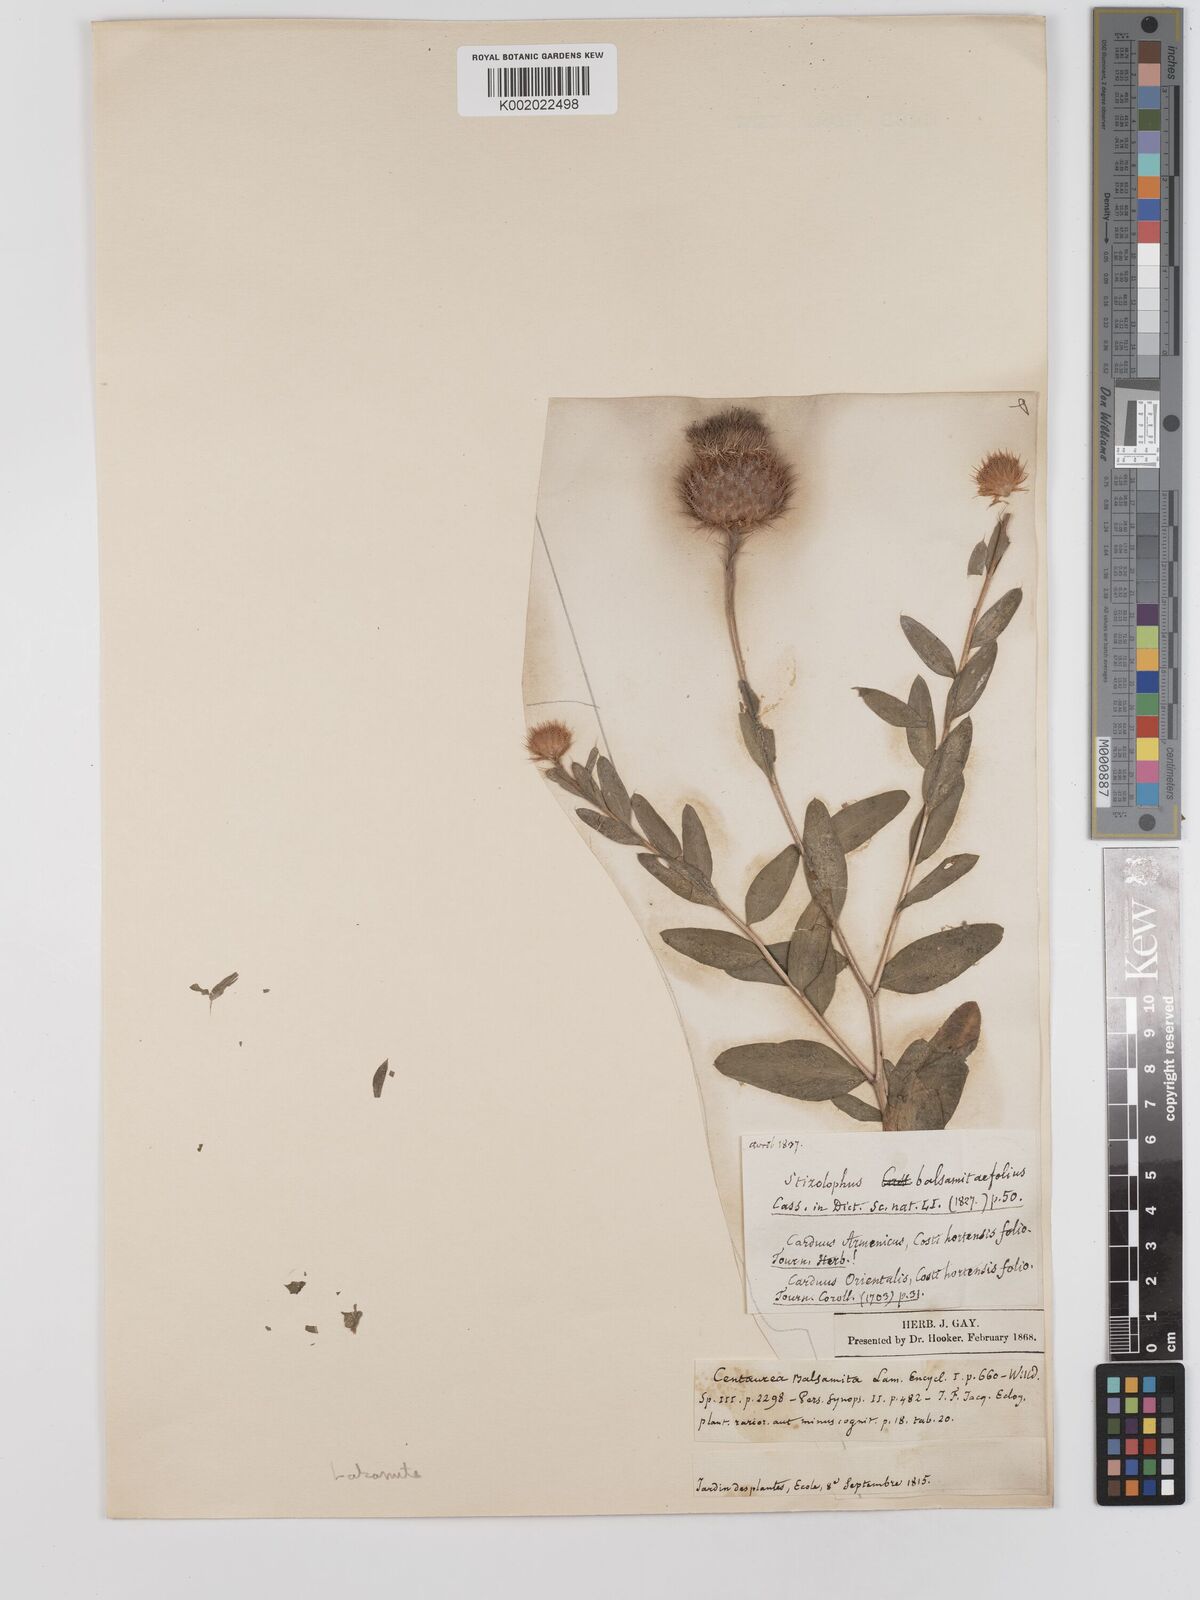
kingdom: Plantae
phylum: Tracheophyta
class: Magnoliopsida
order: Asterales
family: Asteraceae
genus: Stizolophus
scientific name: Stizolophus balsamita
